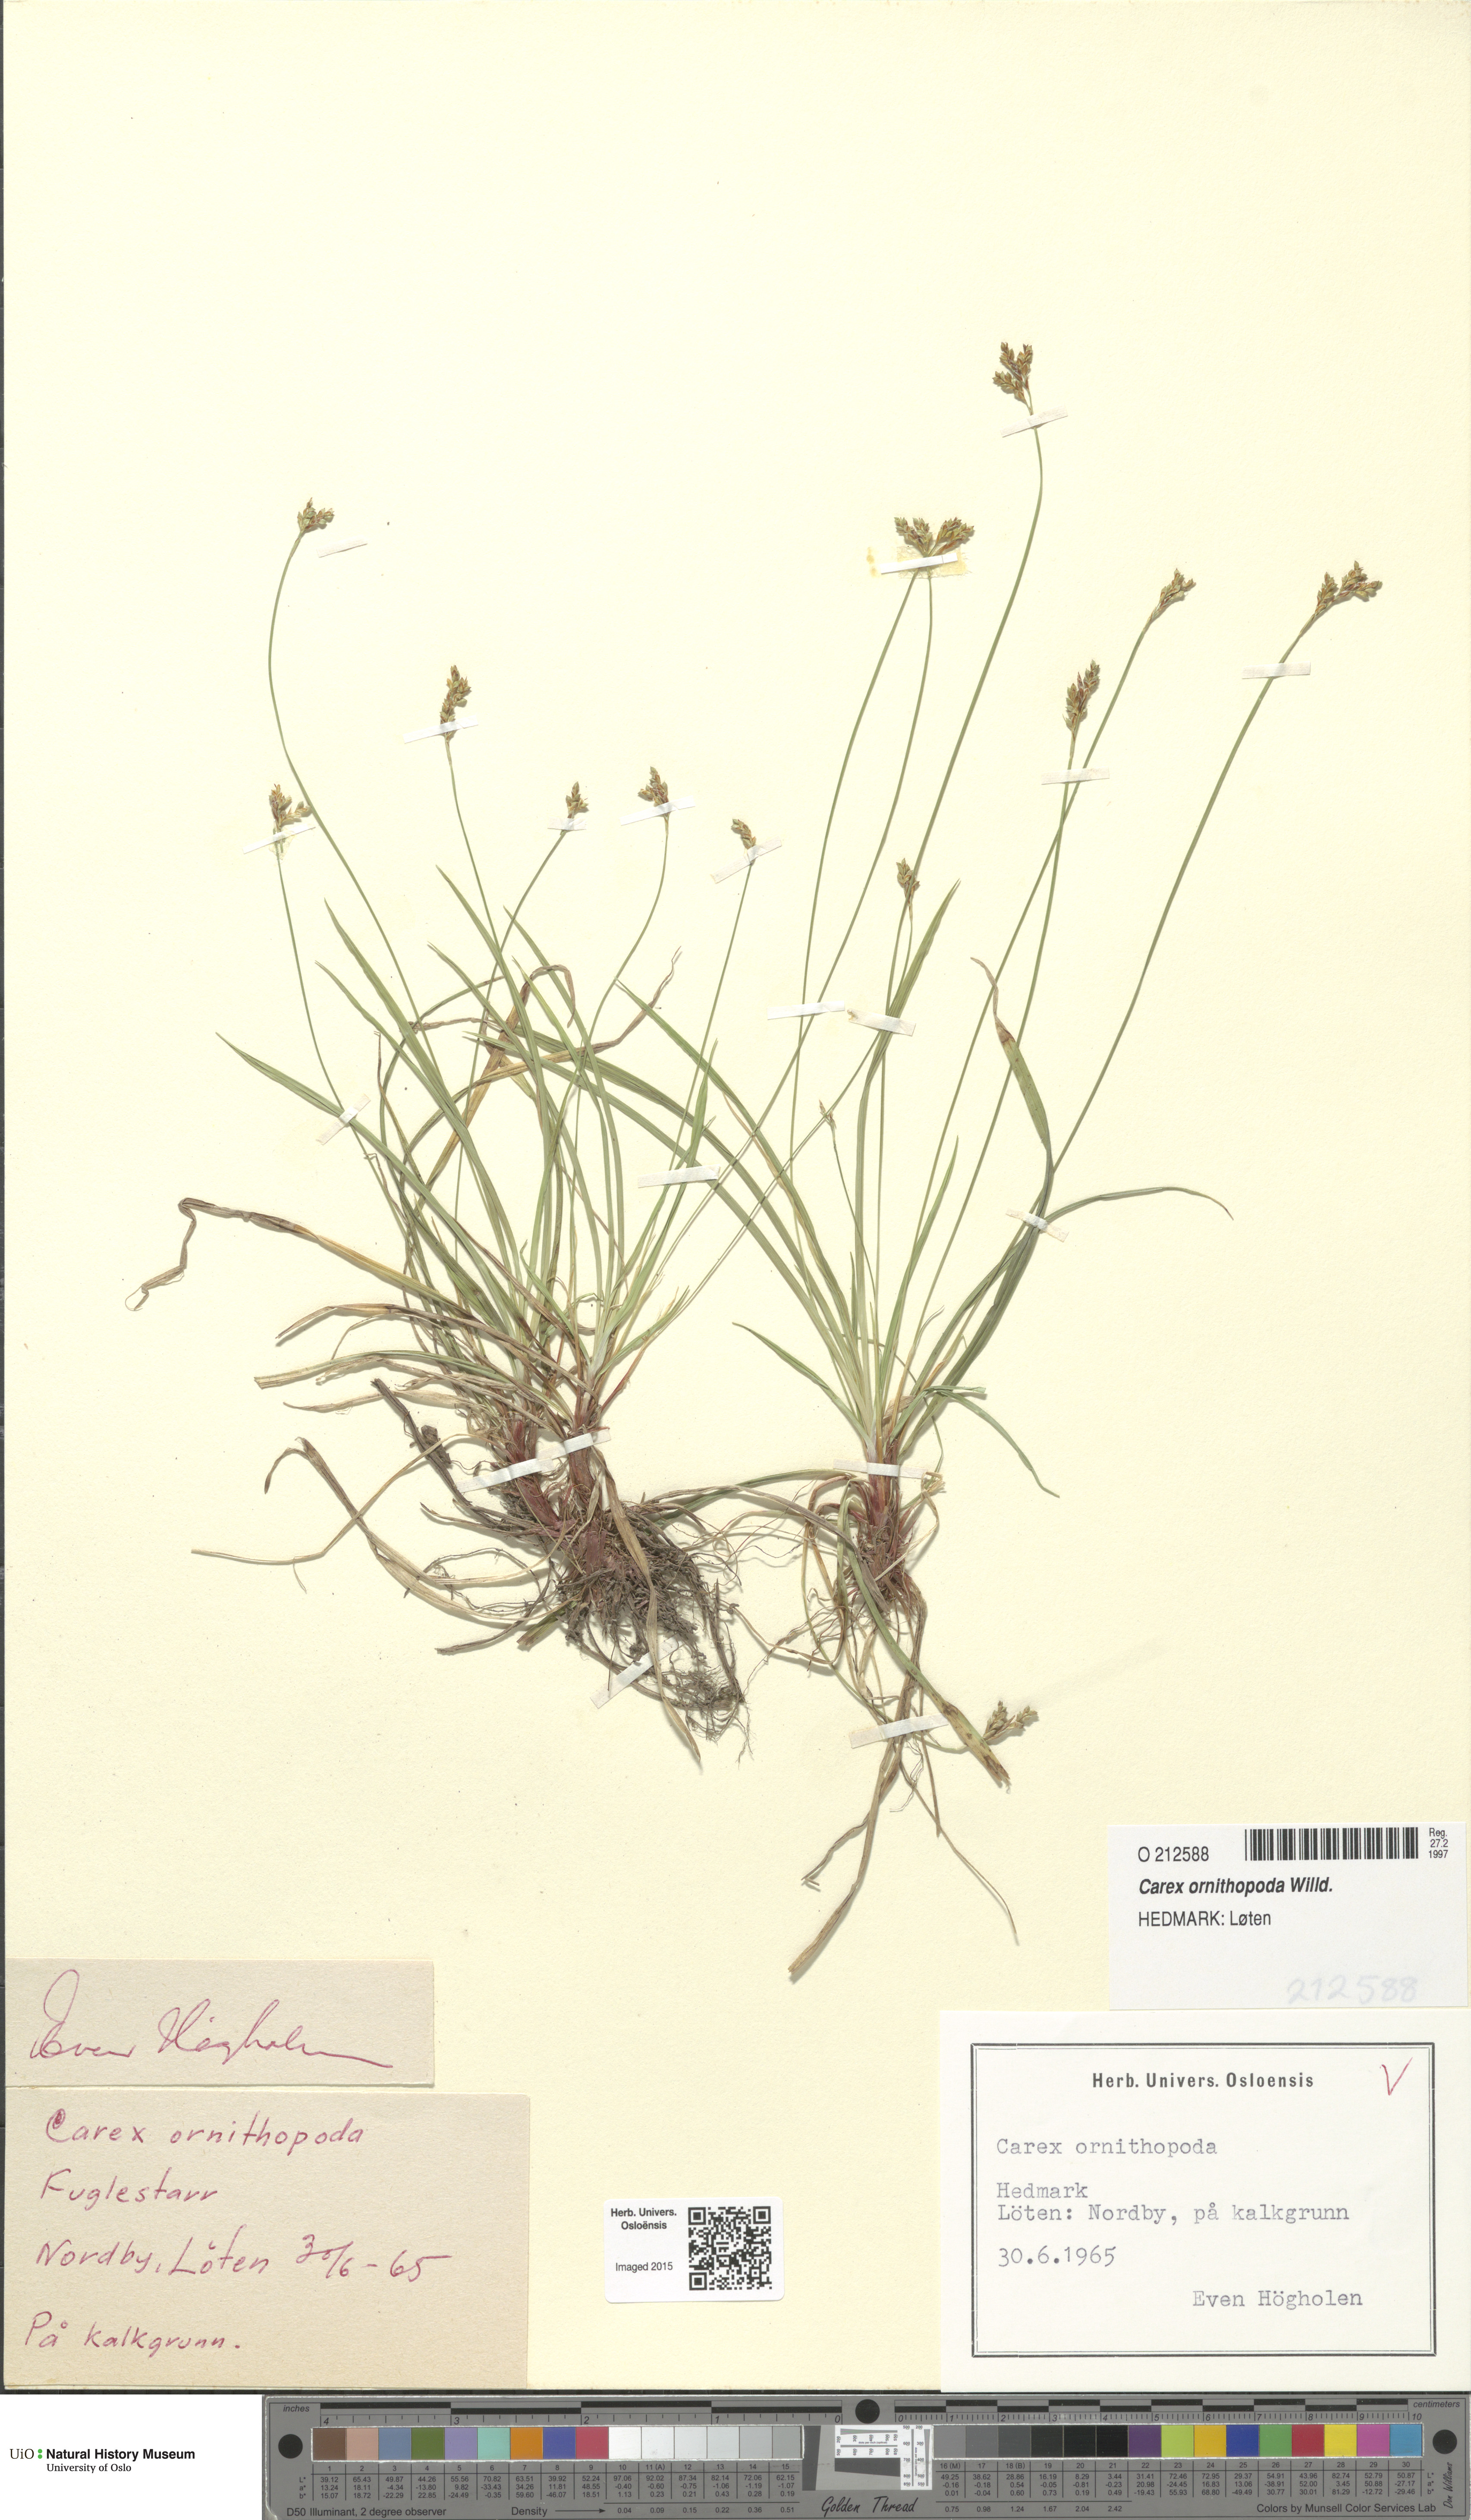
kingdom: Plantae
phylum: Tracheophyta
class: Liliopsida
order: Poales
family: Cyperaceae
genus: Carex
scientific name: Carex ornithopoda
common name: Bird's-foot sedge
